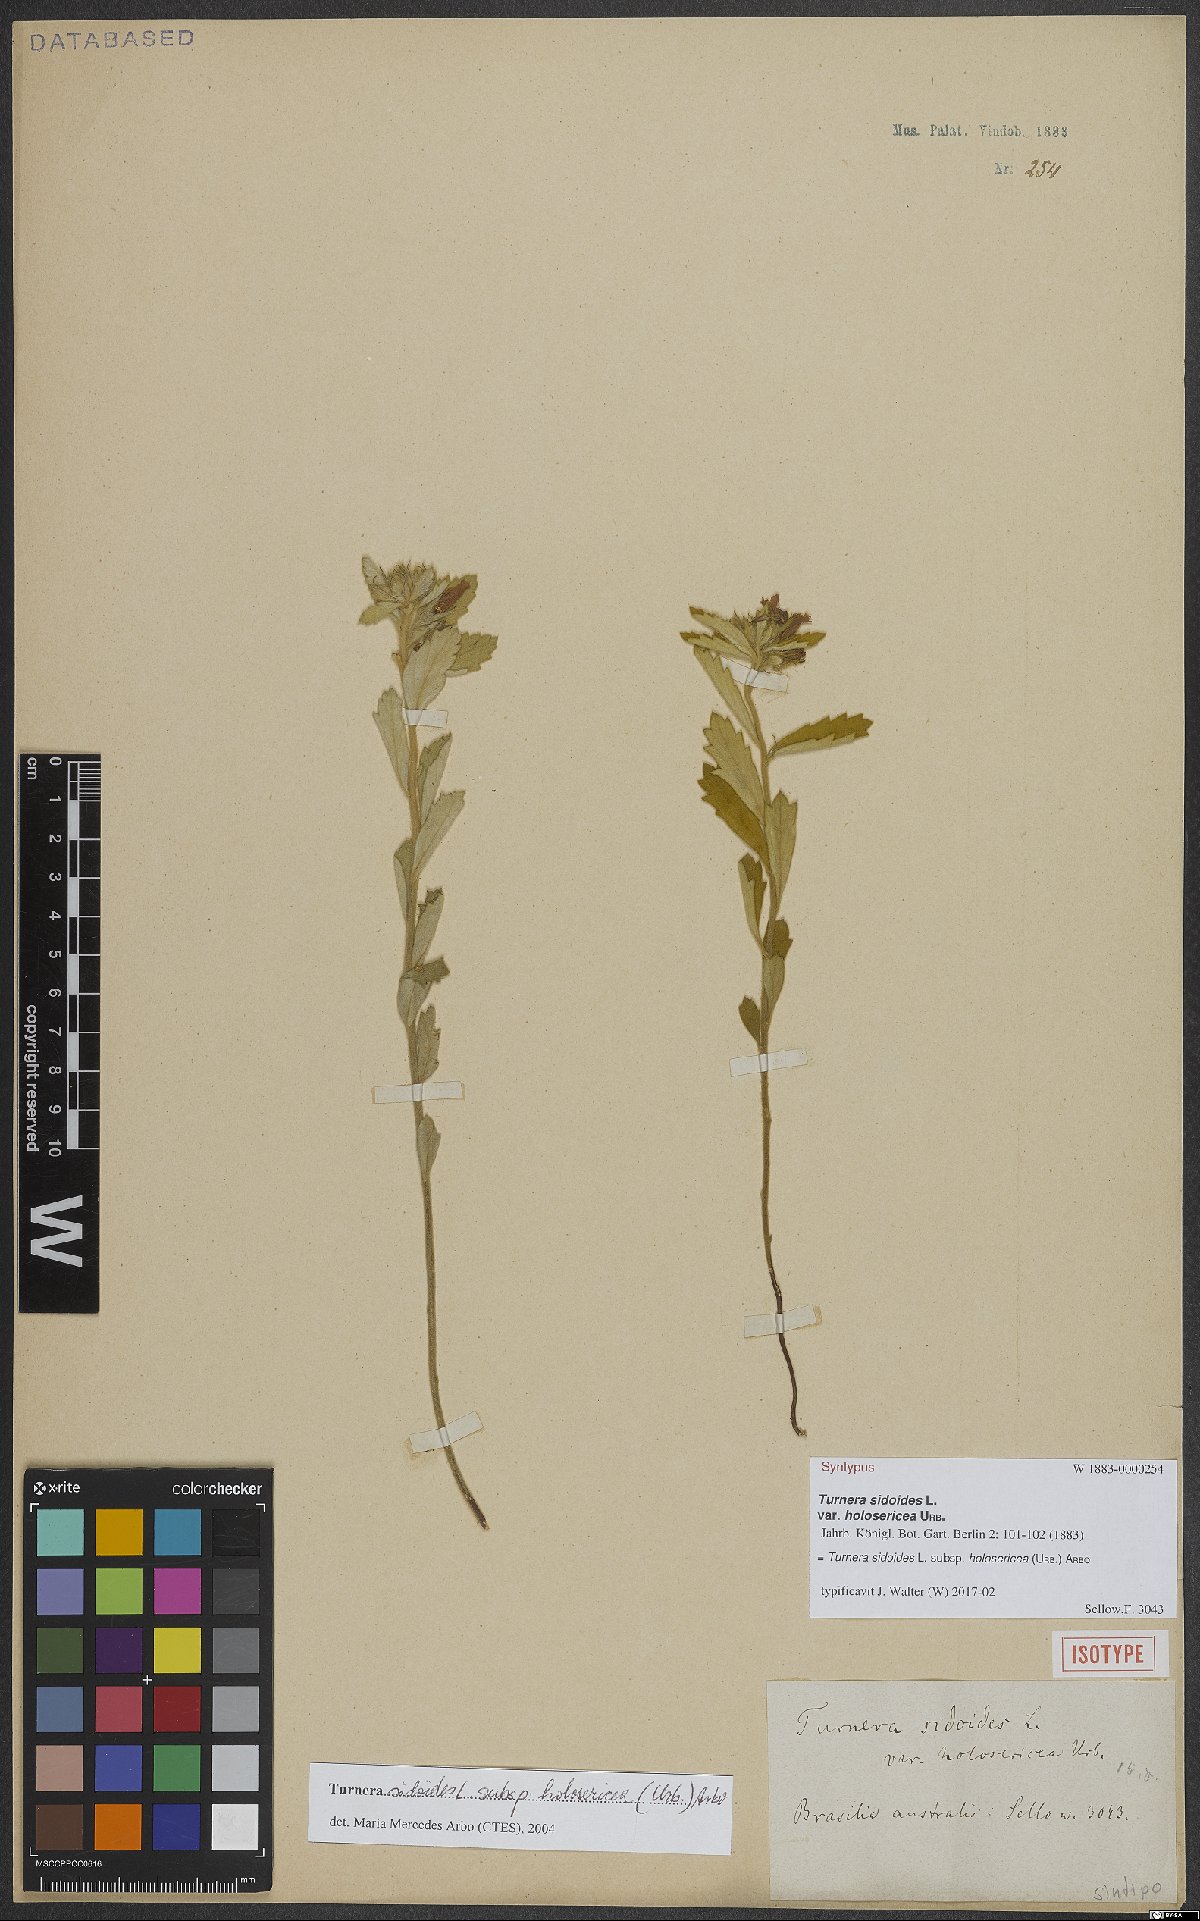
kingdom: Plantae
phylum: Tracheophyta
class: Magnoliopsida
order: Malpighiales
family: Turneraceae
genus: Turnera
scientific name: Turnera sidoides
